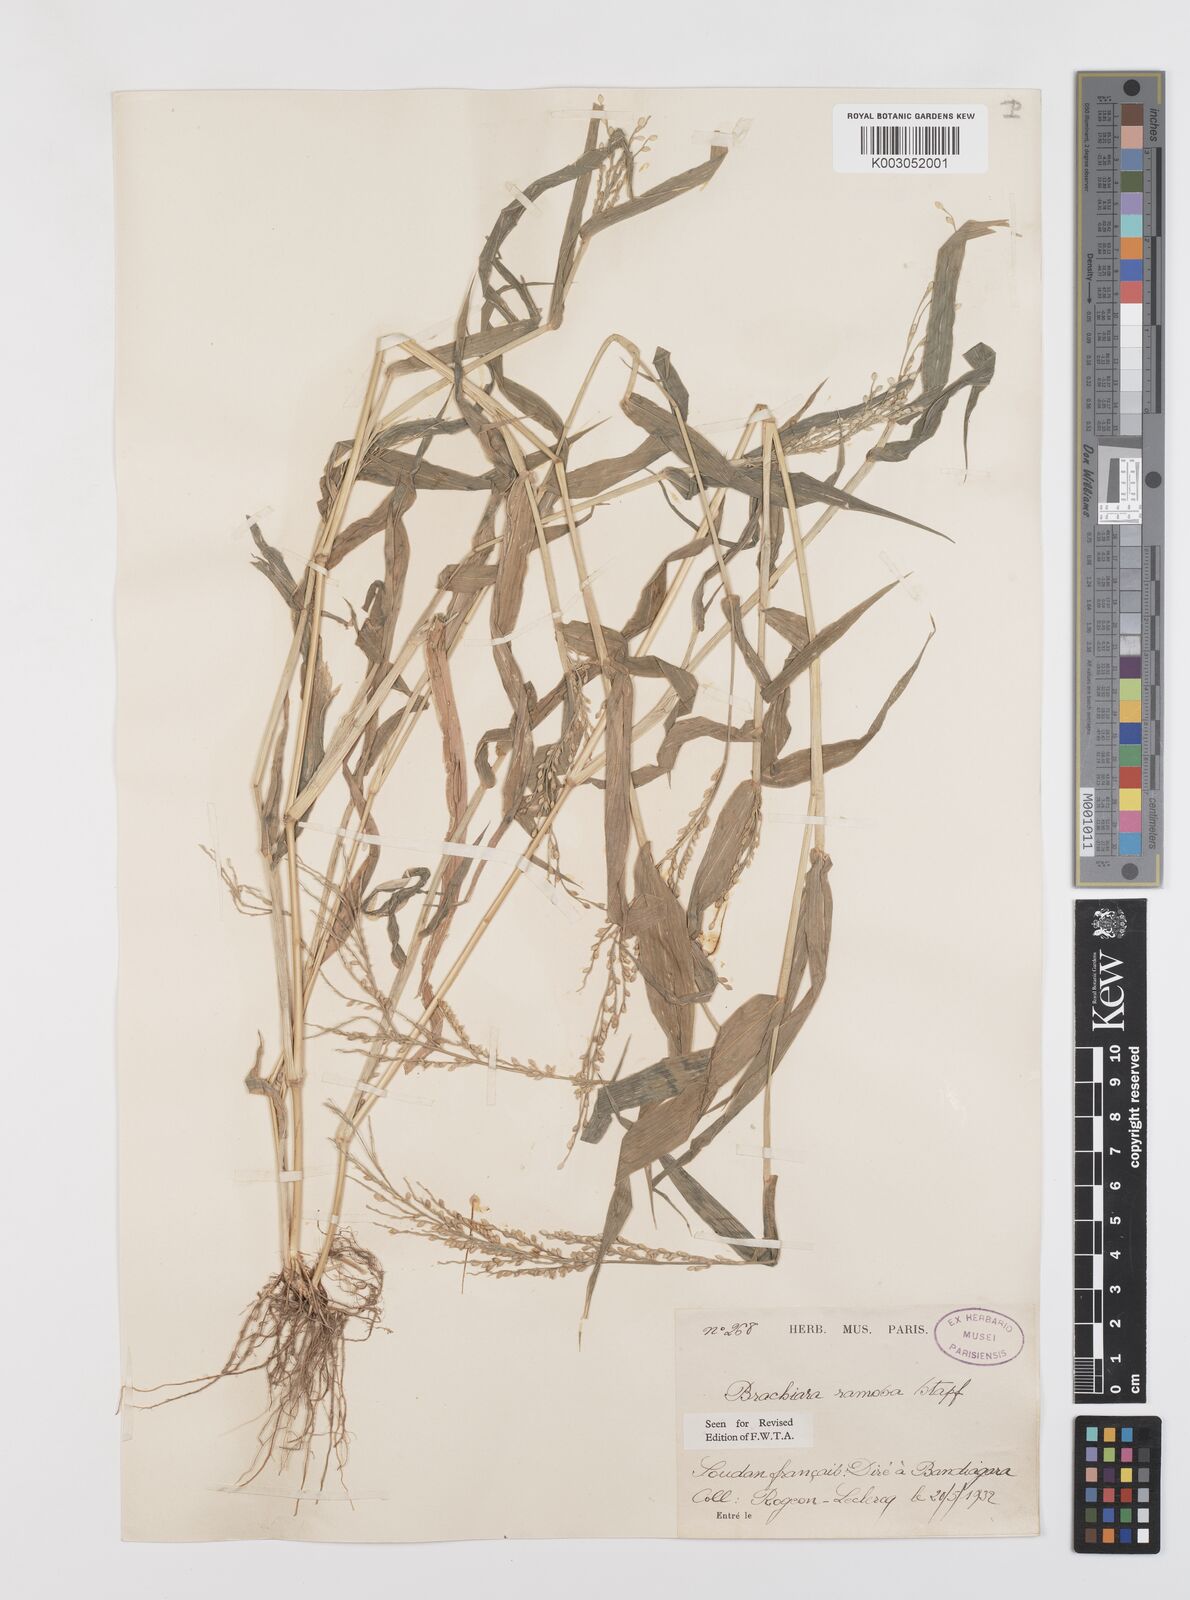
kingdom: Plantae
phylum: Tracheophyta
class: Liliopsida
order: Poales
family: Poaceae
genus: Urochloa
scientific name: Urochloa ramosa
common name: Browntop millet
